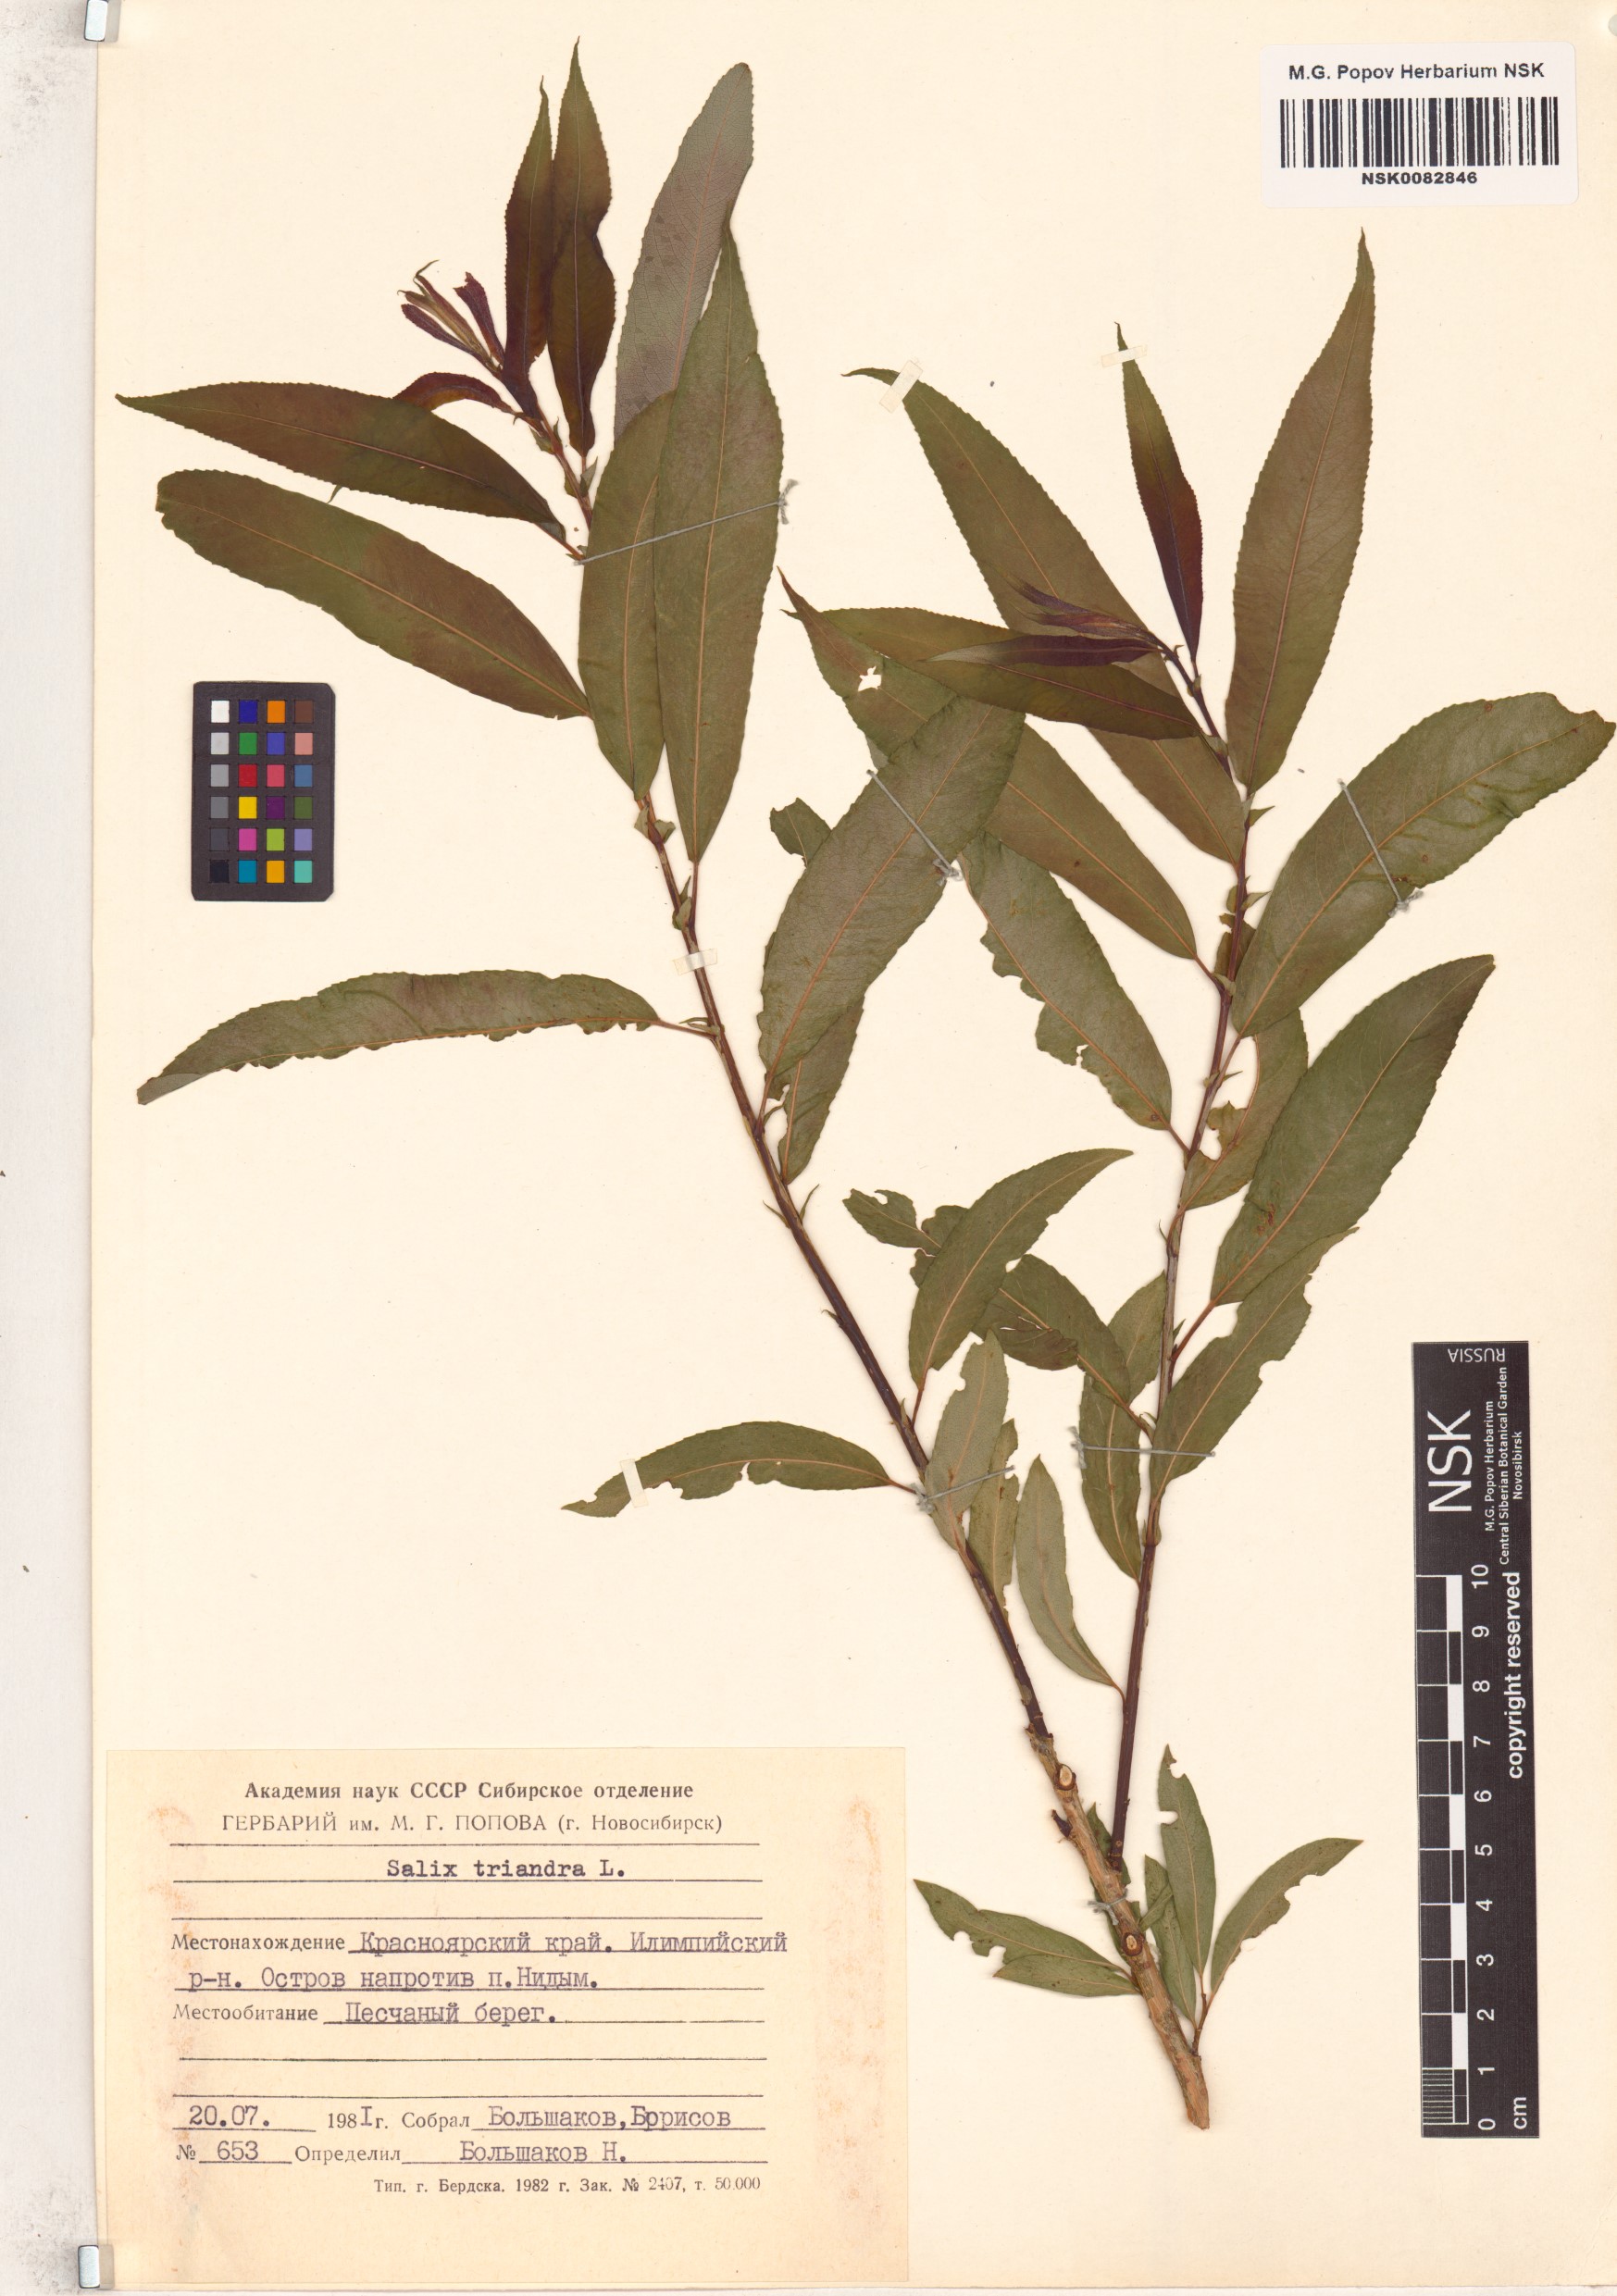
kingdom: Plantae
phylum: Tracheophyta
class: Magnoliopsida
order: Malpighiales
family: Salicaceae
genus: Salix
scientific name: Salix triandra
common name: Almond willow
